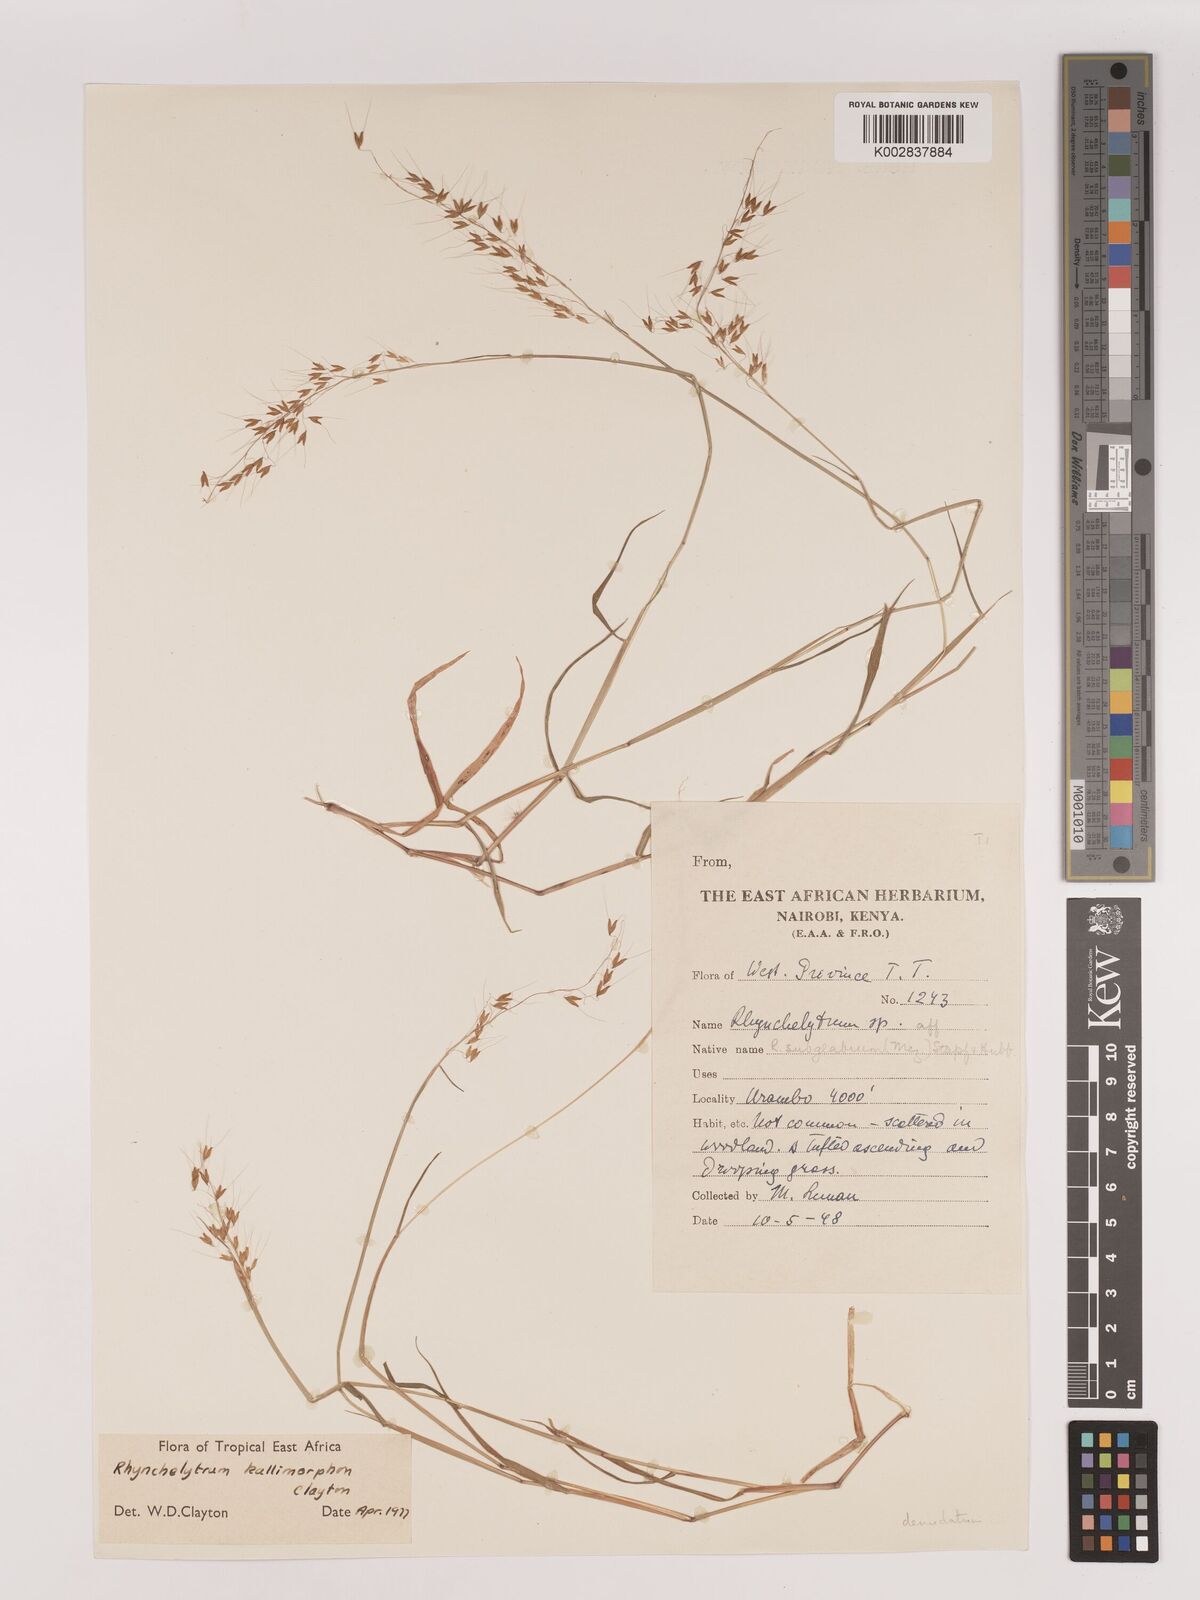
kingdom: Plantae
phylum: Tracheophyta
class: Liliopsida
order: Poales
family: Poaceae
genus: Melinis
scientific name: Melinis kallimorpha
